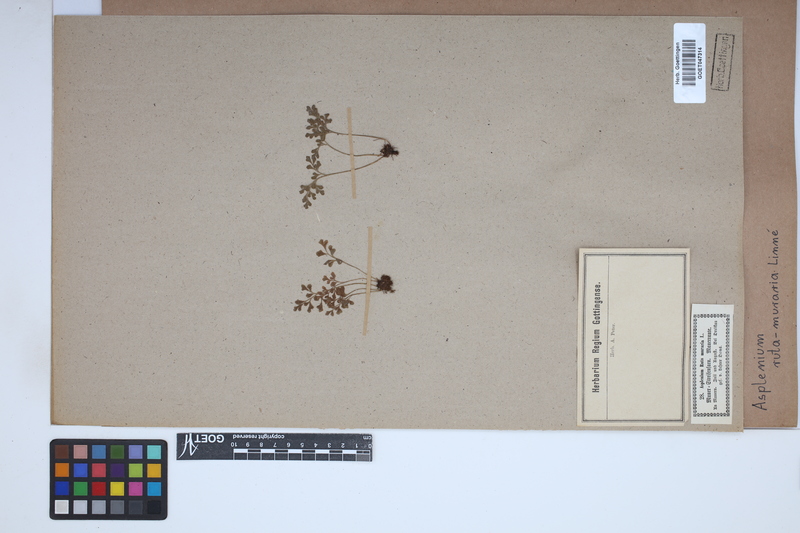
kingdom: Plantae
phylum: Tracheophyta
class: Polypodiopsida
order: Polypodiales
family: Aspleniaceae
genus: Asplenium
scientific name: Asplenium ruta-muraria
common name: Wall-rue
